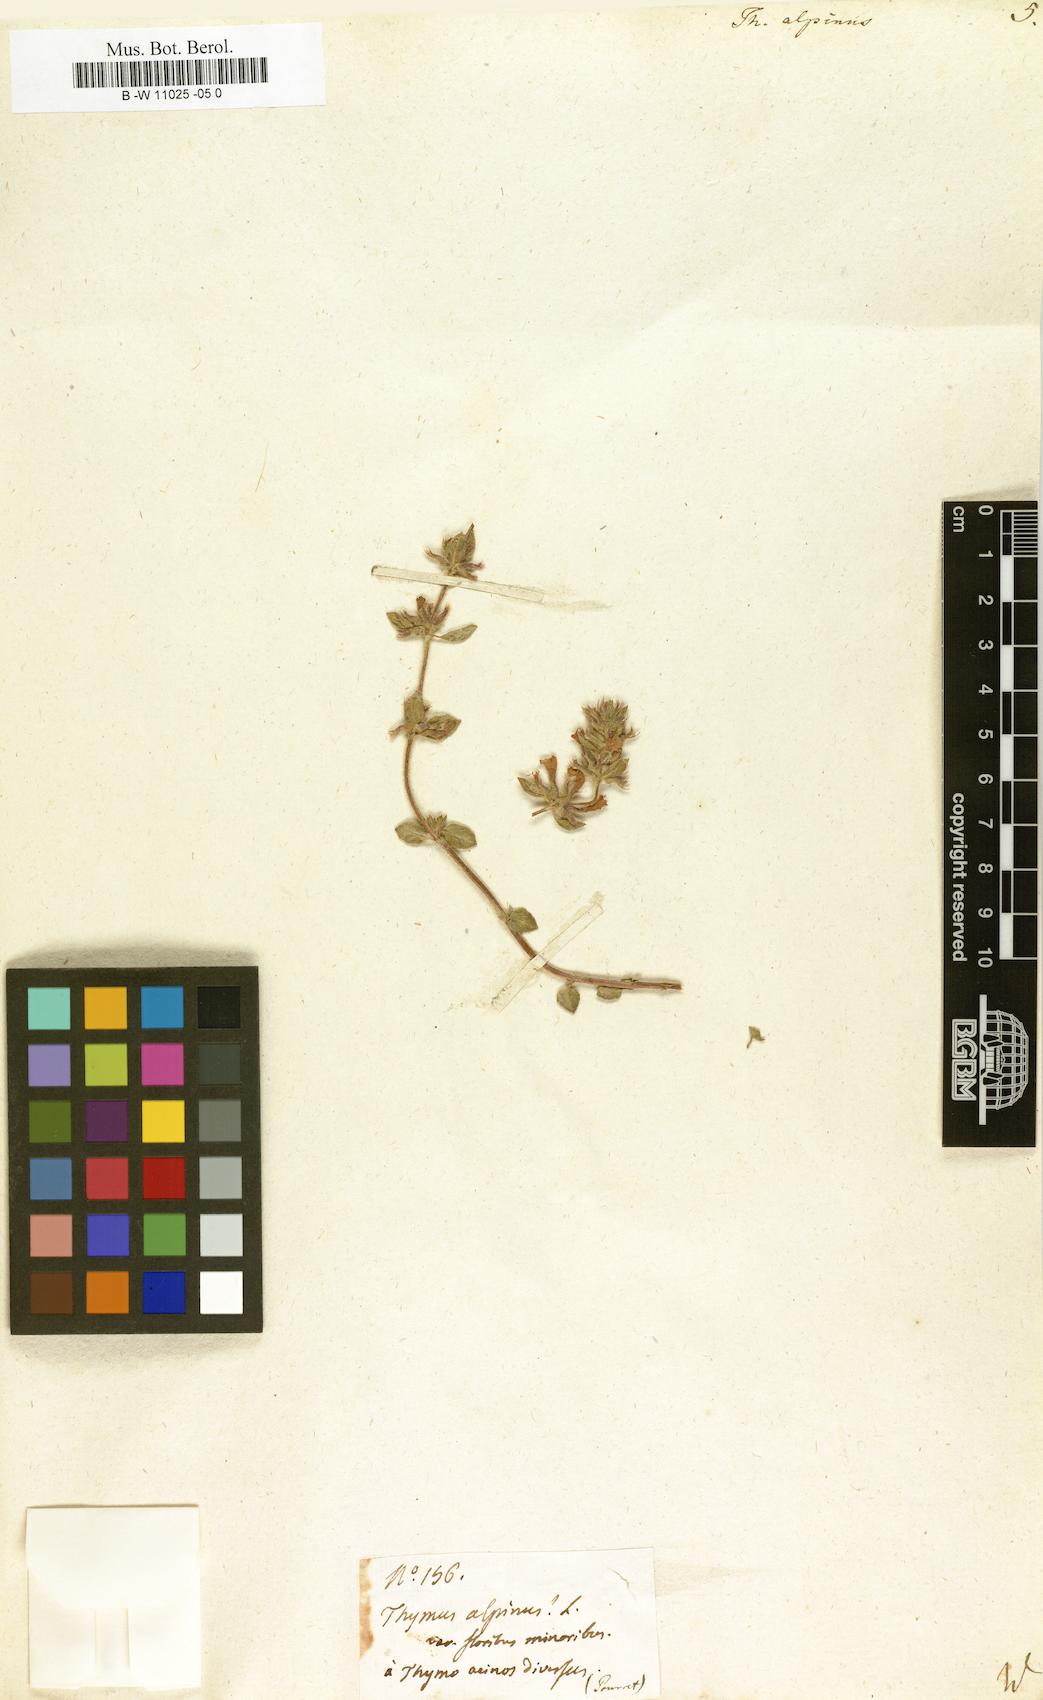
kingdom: Plantae
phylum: Tracheophyta
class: Magnoliopsida
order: Lamiales
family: Lamiaceae
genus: Thymus
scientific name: Thymus alpinus
